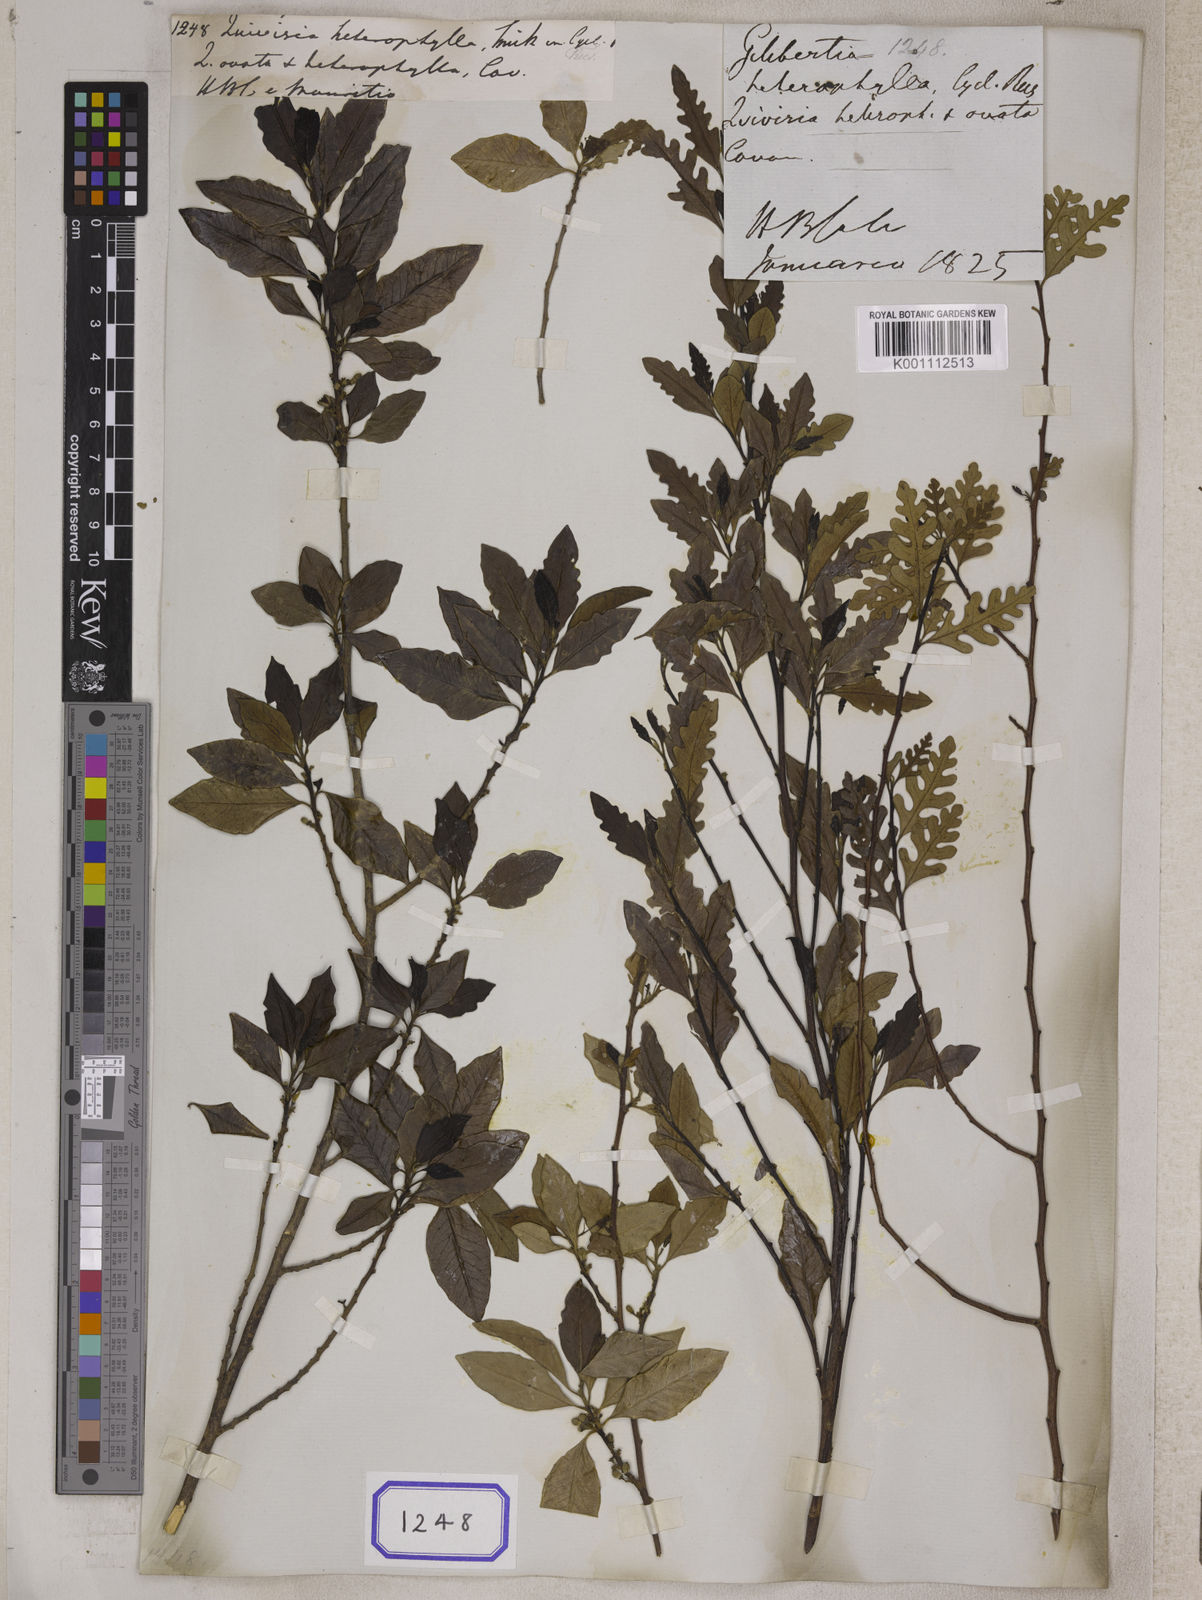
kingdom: Plantae
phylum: Tracheophyta
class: Magnoliopsida
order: Sapindales
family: Meliaceae
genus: Turraea
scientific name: Turraea
